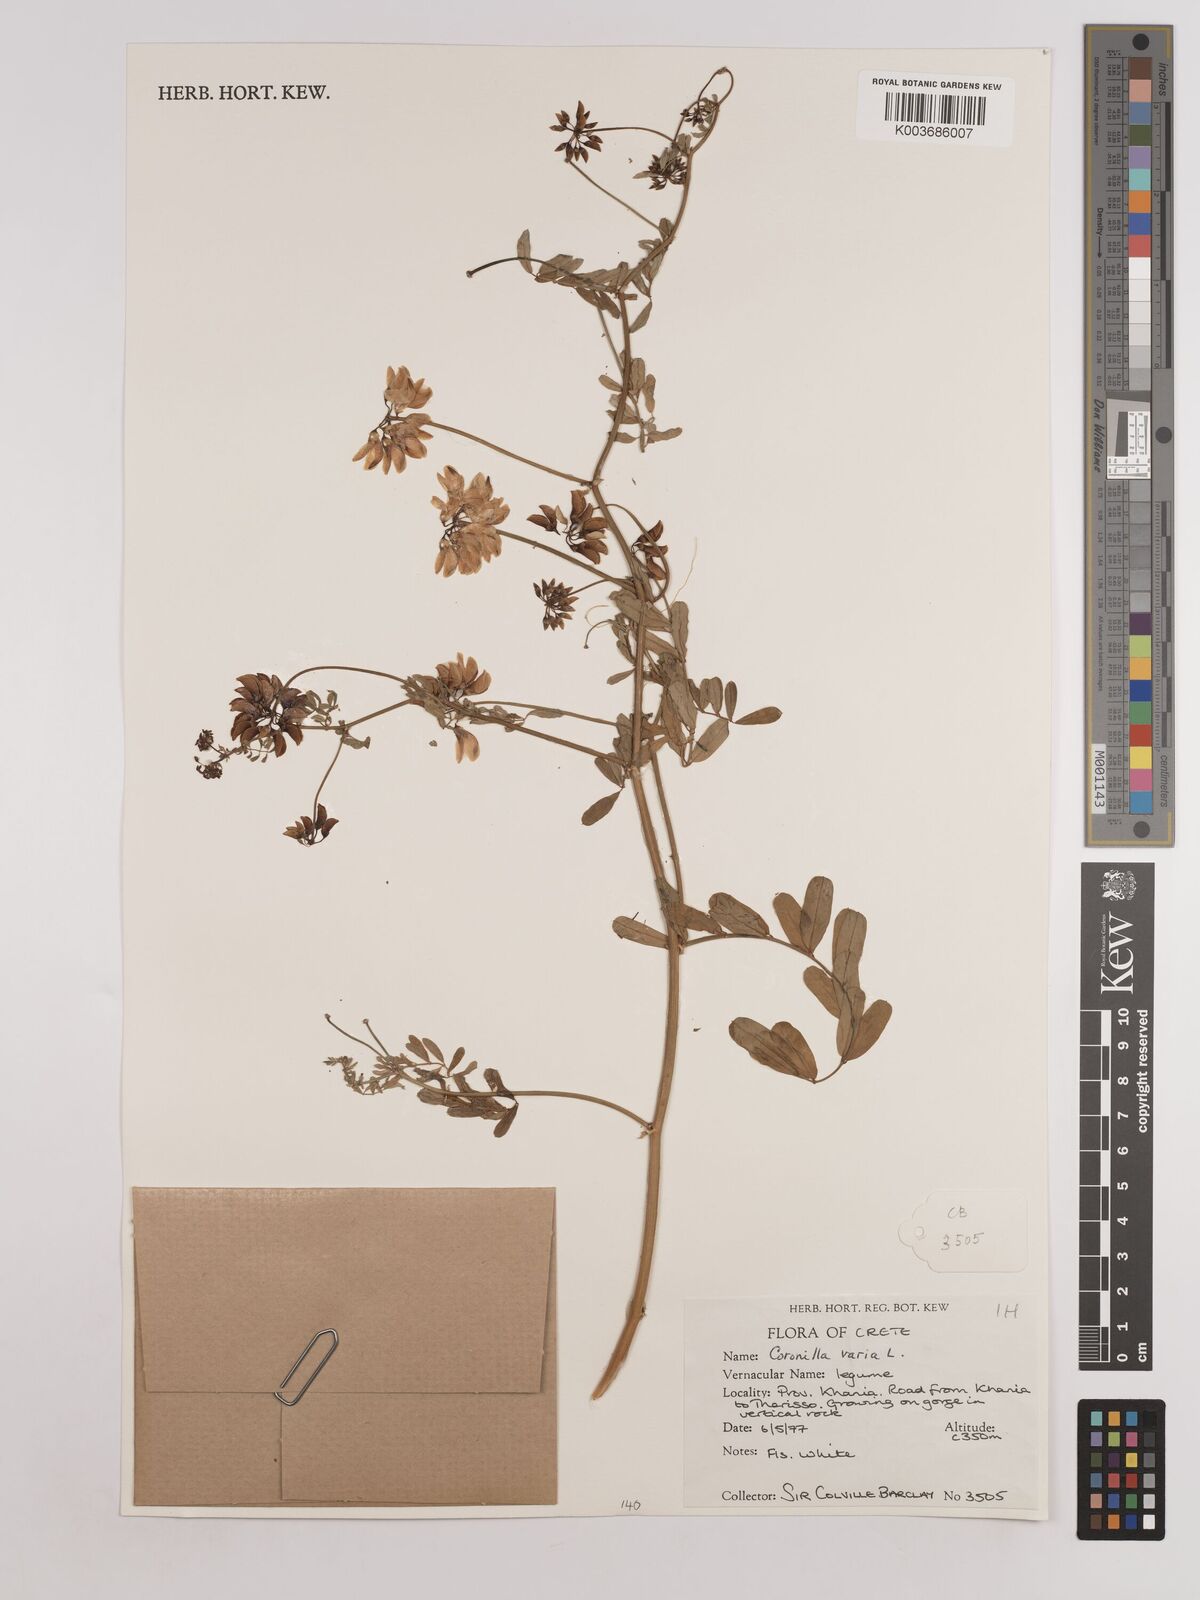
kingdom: Plantae
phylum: Tracheophyta
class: Magnoliopsida
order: Fabales
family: Fabaceae
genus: Coronilla
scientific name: Coronilla varia
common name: Crownvetch
